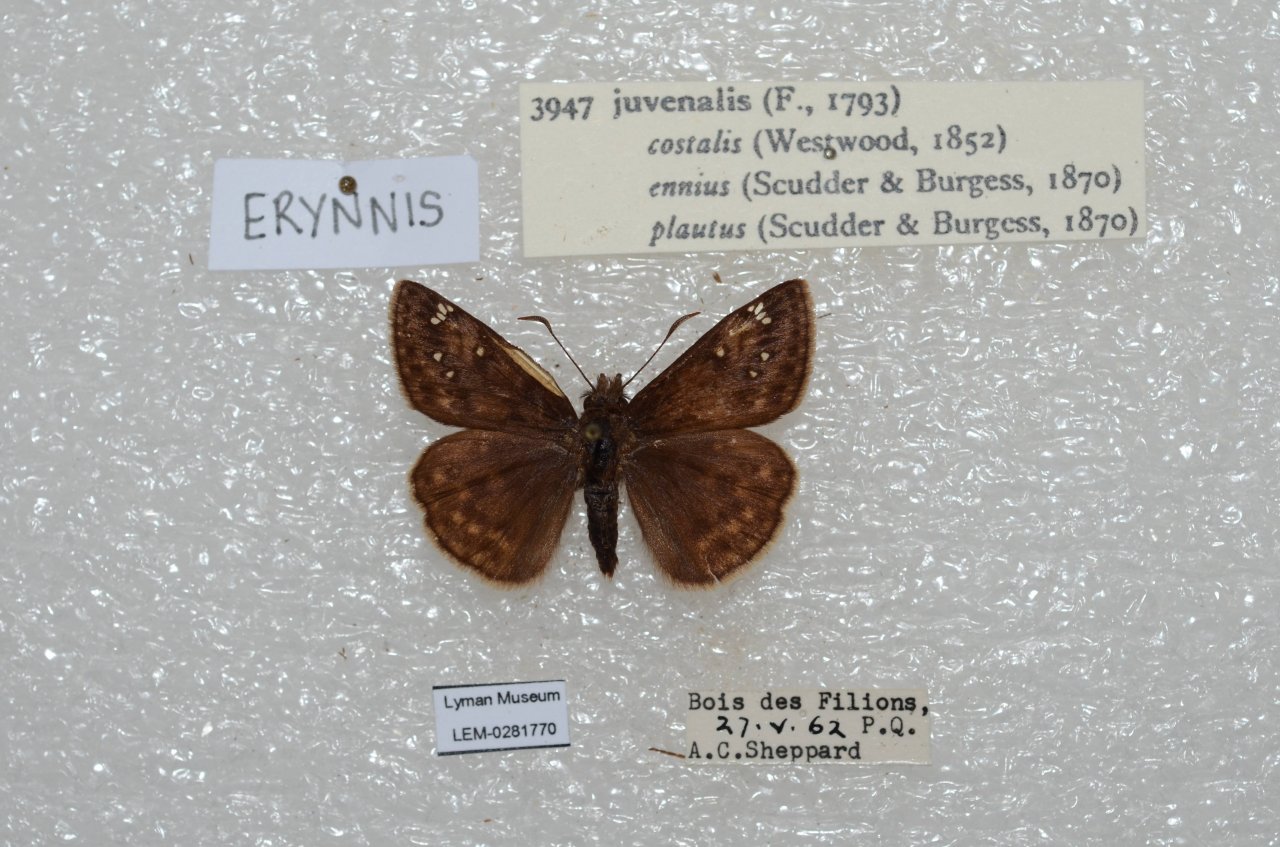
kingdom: Animalia
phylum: Arthropoda
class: Insecta
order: Lepidoptera
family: Hesperiidae
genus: Gesta
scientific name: Gesta
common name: Juvenal's Duskywing
